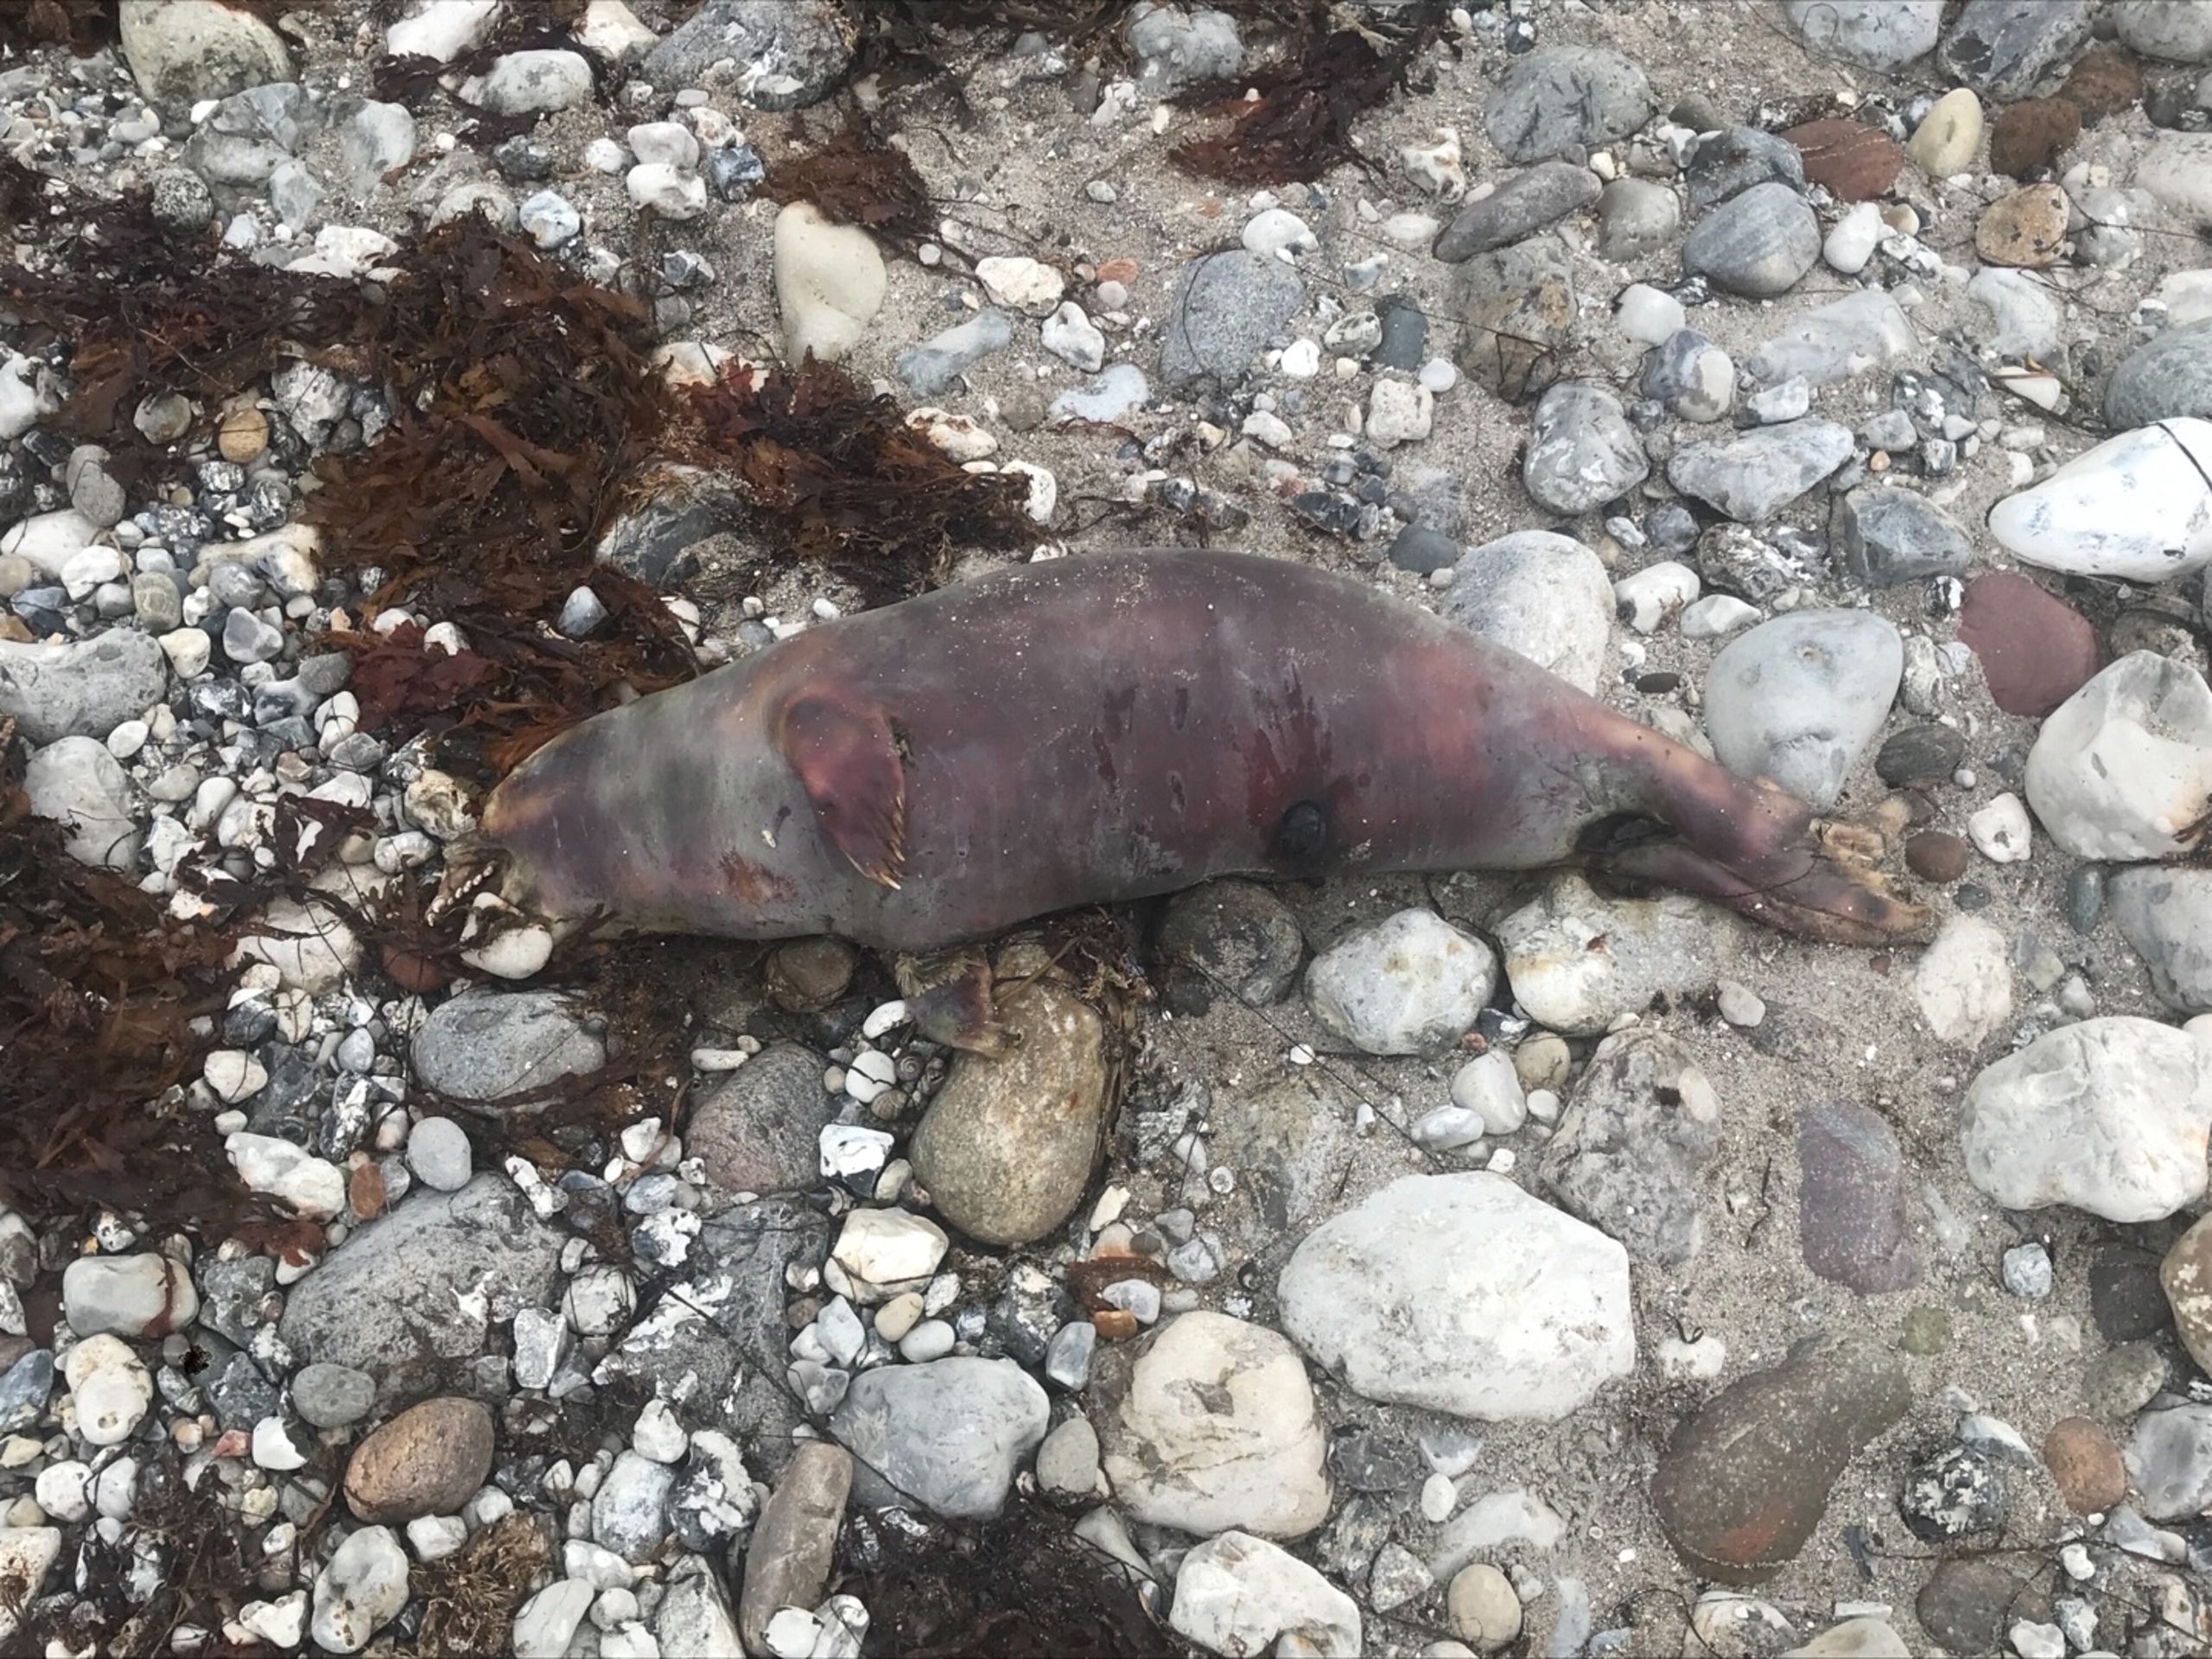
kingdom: Animalia
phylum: Chordata
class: Mammalia
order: Carnivora
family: Phocidae
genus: Phoca
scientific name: Phoca vitulina
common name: Spættet sæl
